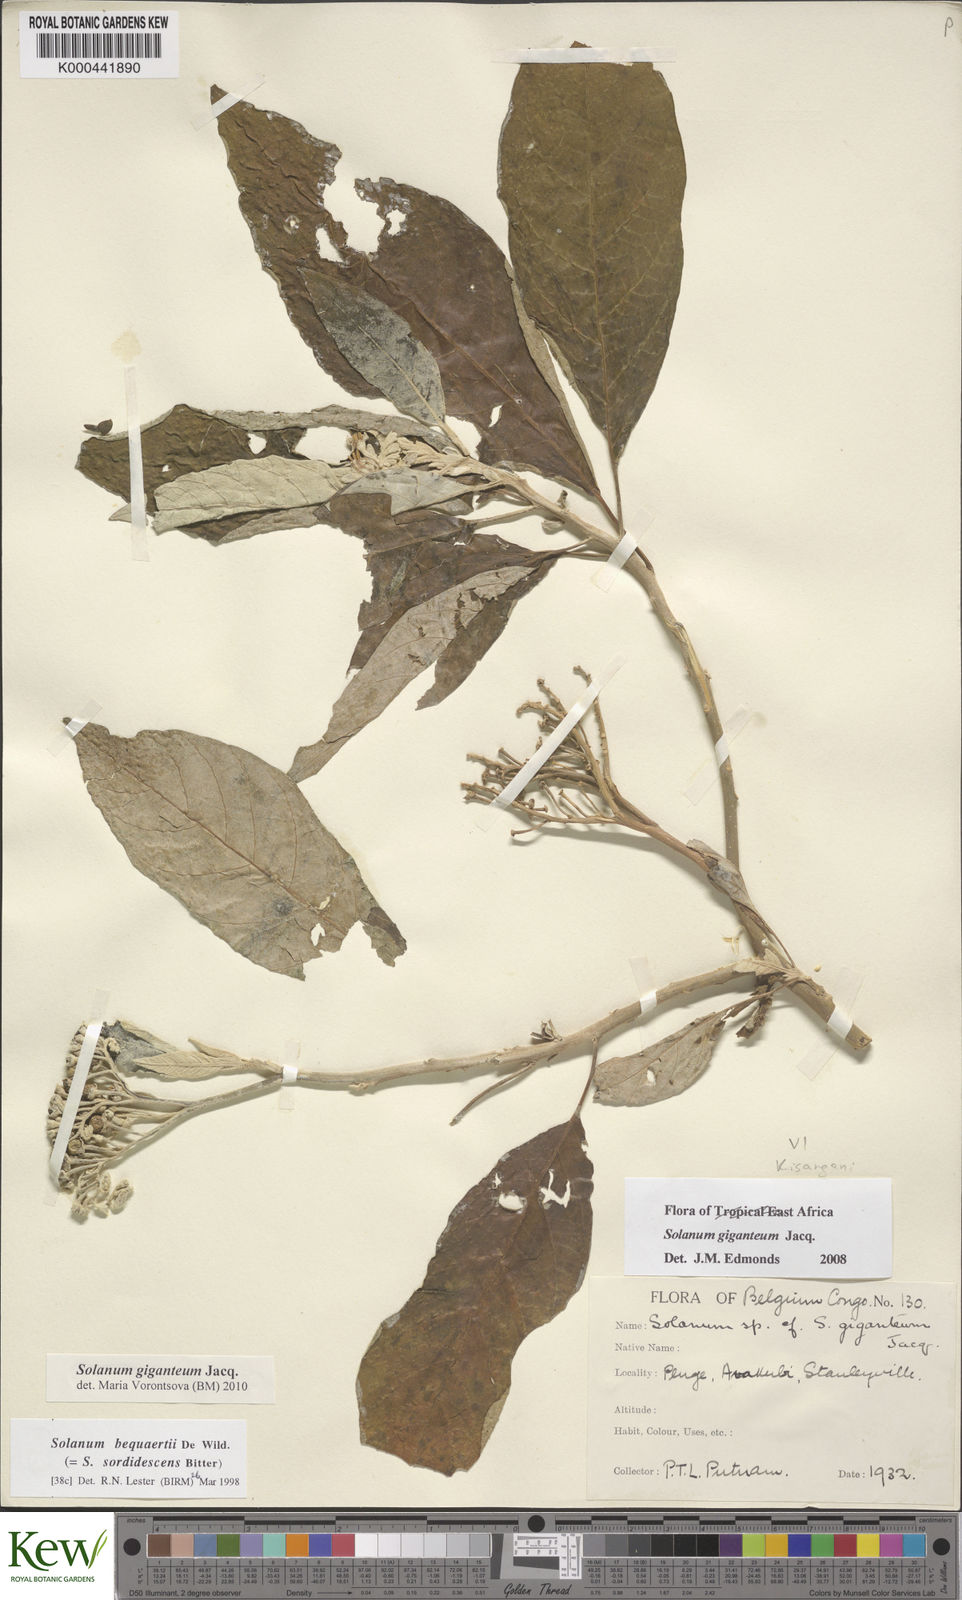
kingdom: Plantae
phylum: Tracheophyta
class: Magnoliopsida
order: Solanales
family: Solanaceae
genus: Solanum
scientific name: Solanum giganteum
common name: Healing-leaf-tree
